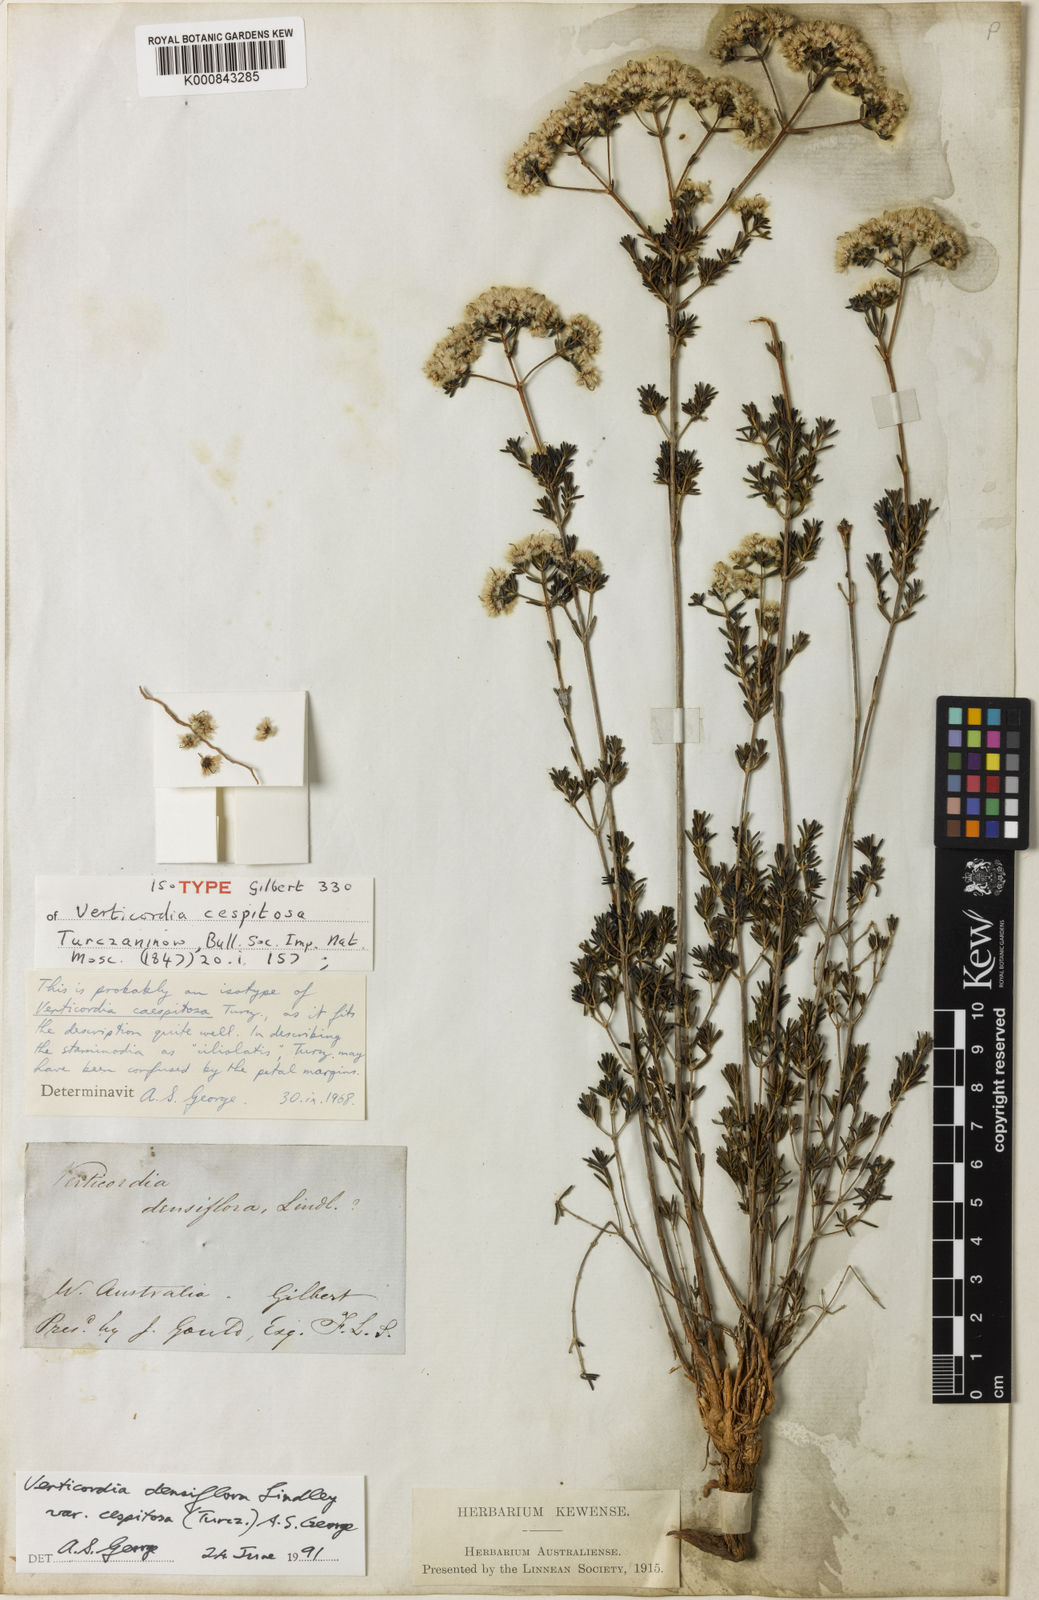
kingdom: Plantae
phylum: Tracheophyta
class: Magnoliopsida
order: Myrtales
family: Myrtaceae
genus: Verticordia
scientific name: Verticordia densiflora
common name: Compact feather-flower
